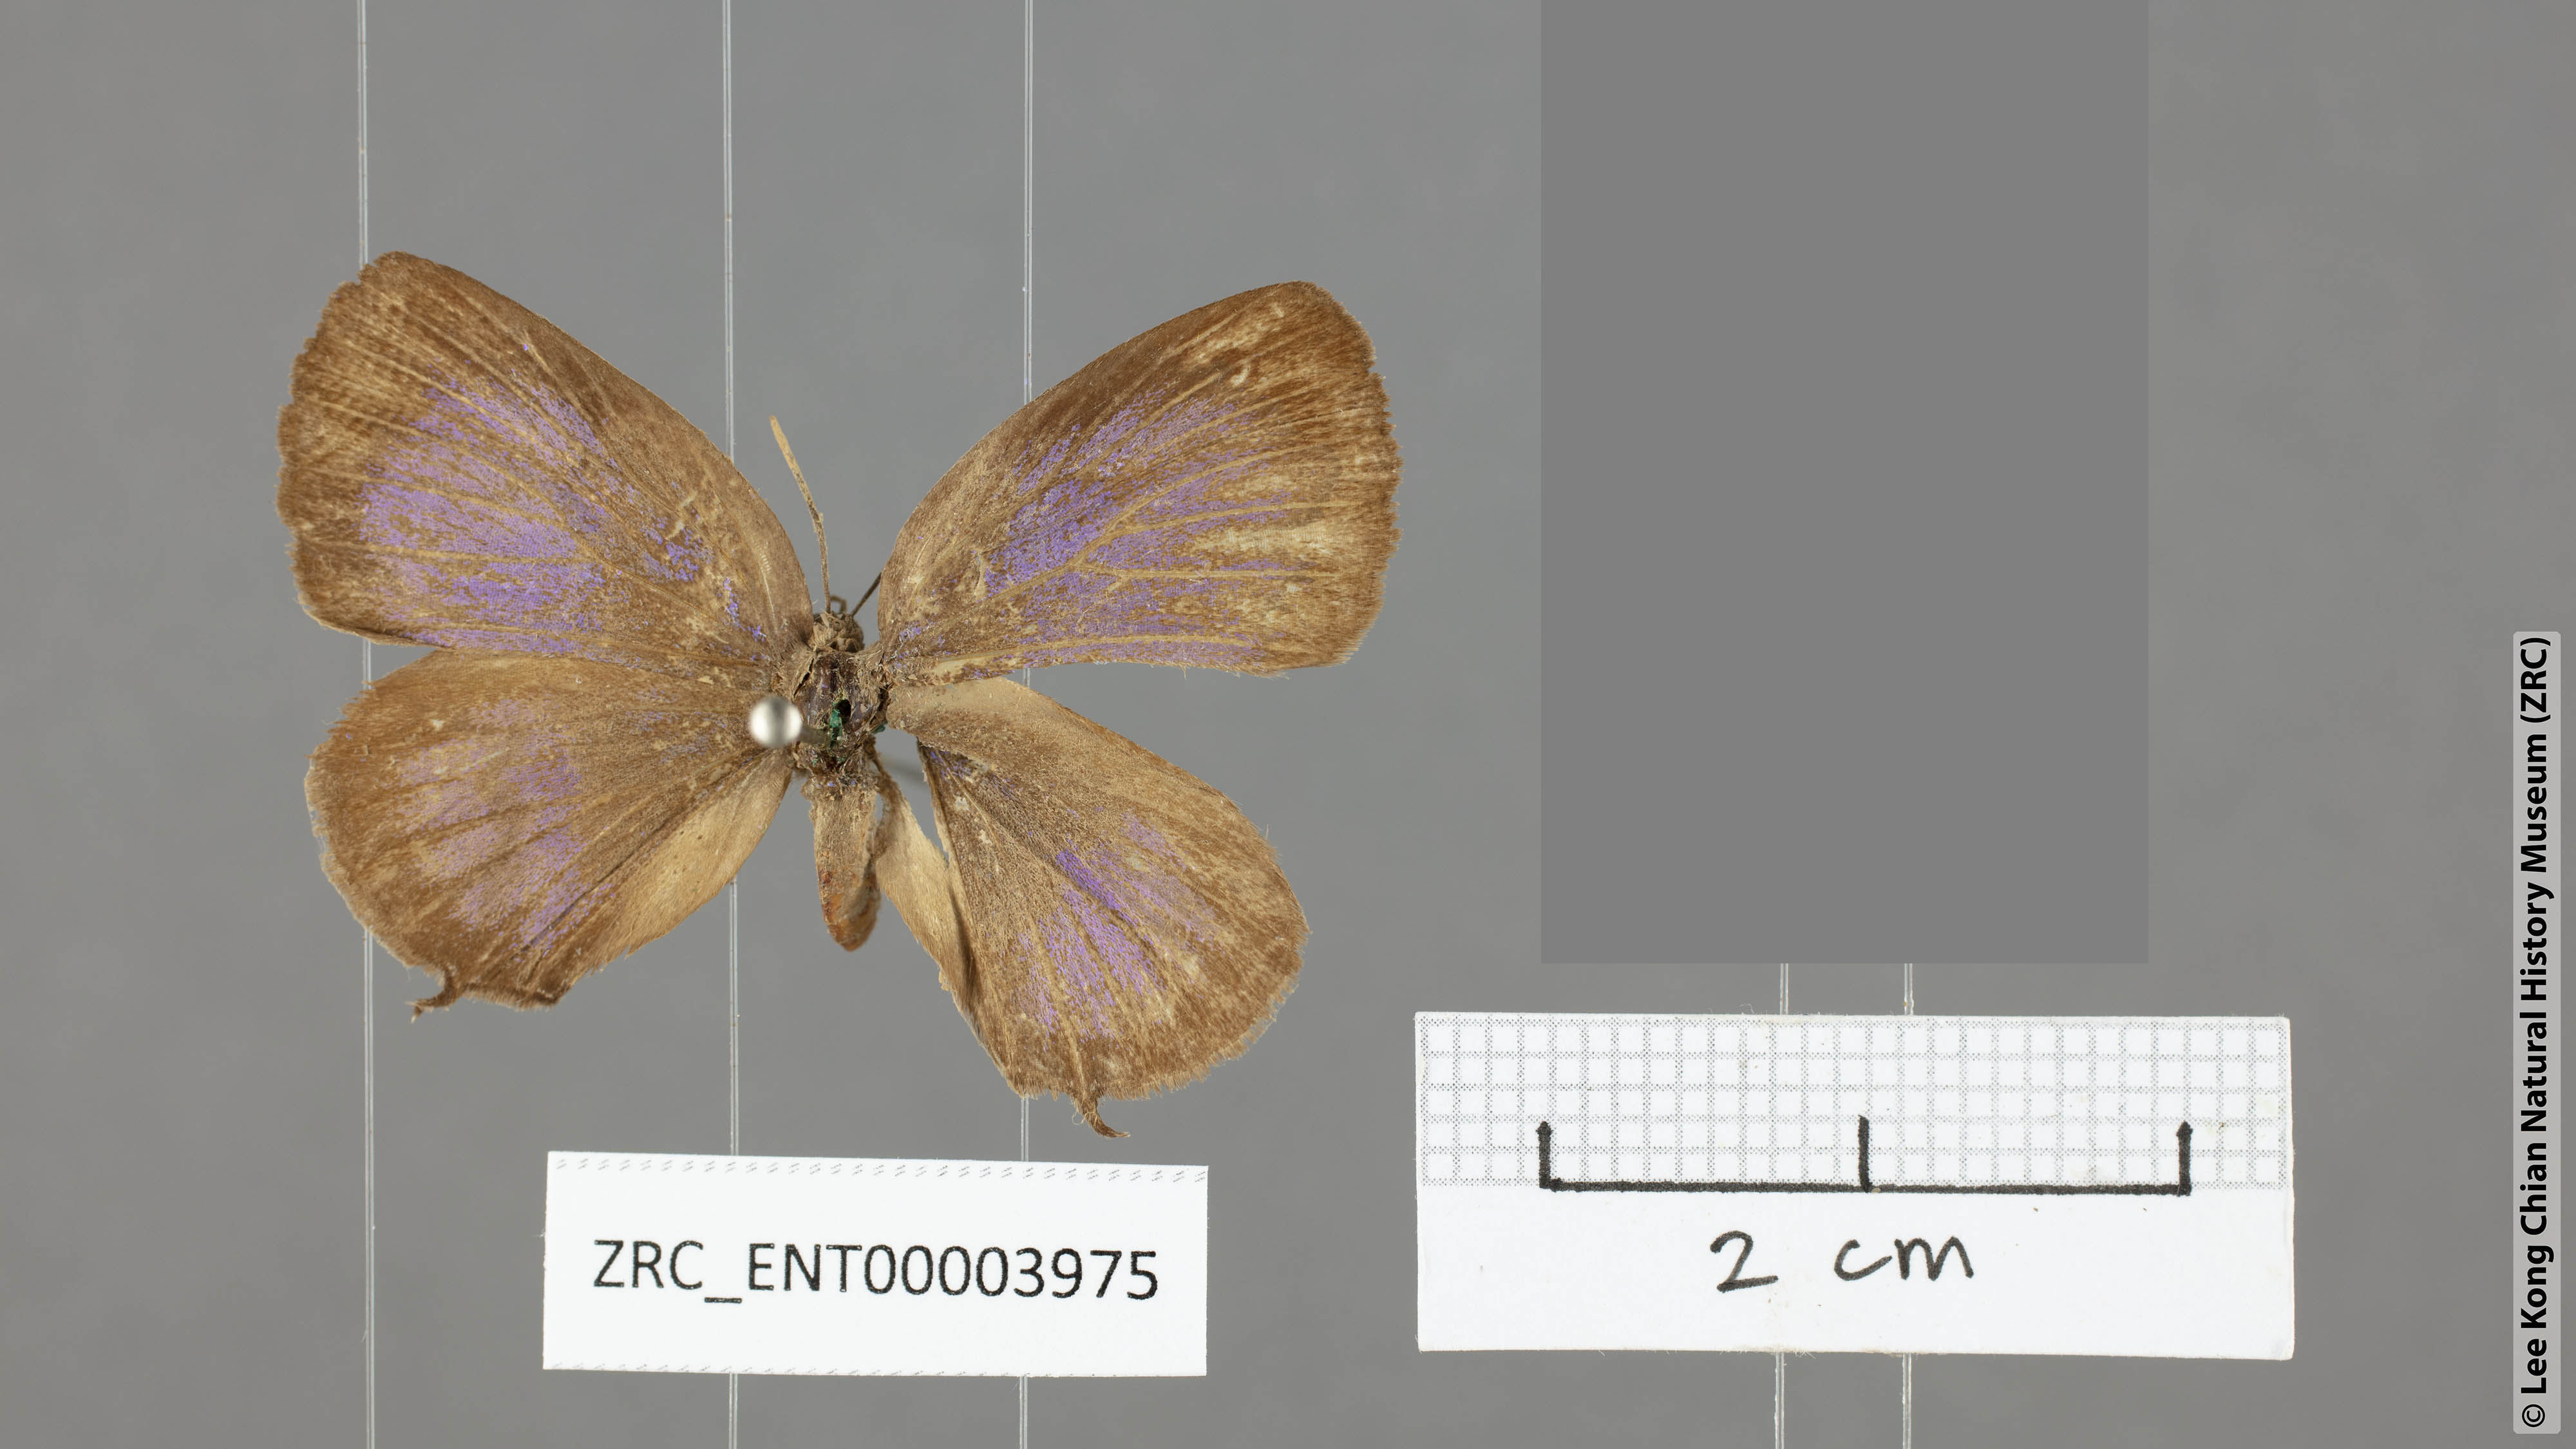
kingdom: Animalia
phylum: Arthropoda
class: Insecta
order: Lepidoptera
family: Lycaenidae
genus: Arhopala
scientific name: Arhopala johoreana
